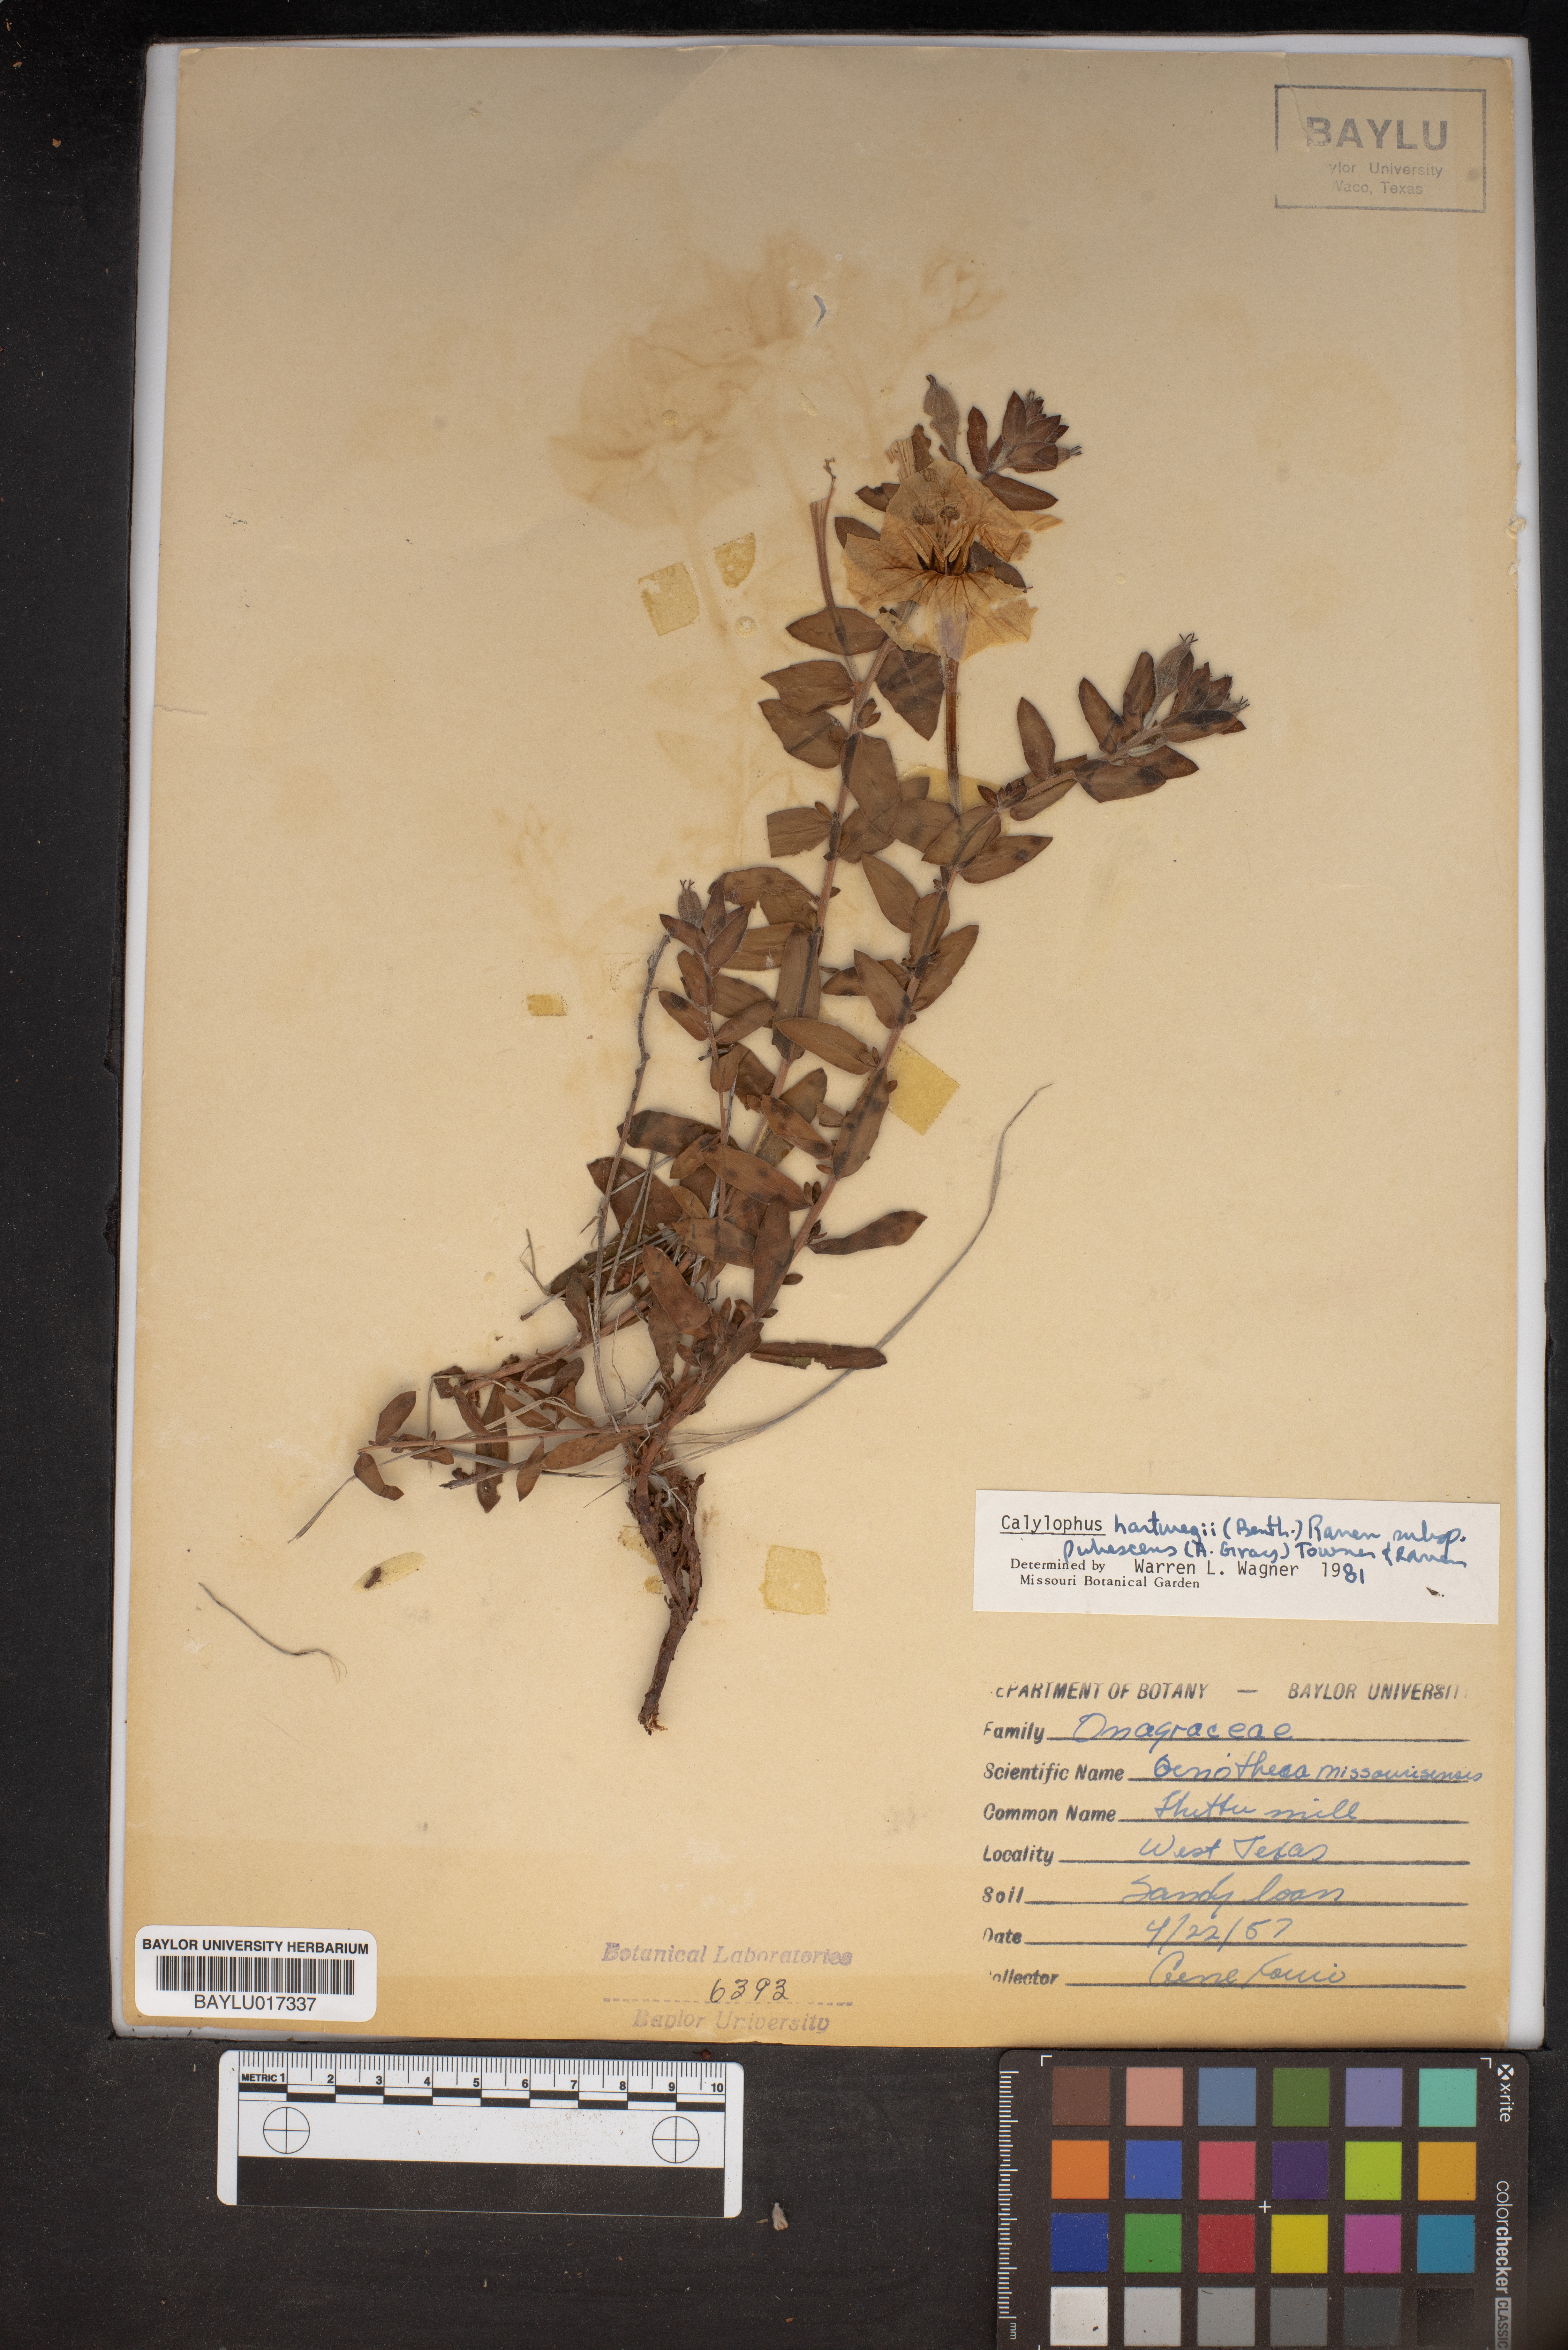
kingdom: Plantae
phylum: Tracheophyta
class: Magnoliopsida
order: Myrtales
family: Onagraceae
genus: Oenothera
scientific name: Oenothera hartwegii
